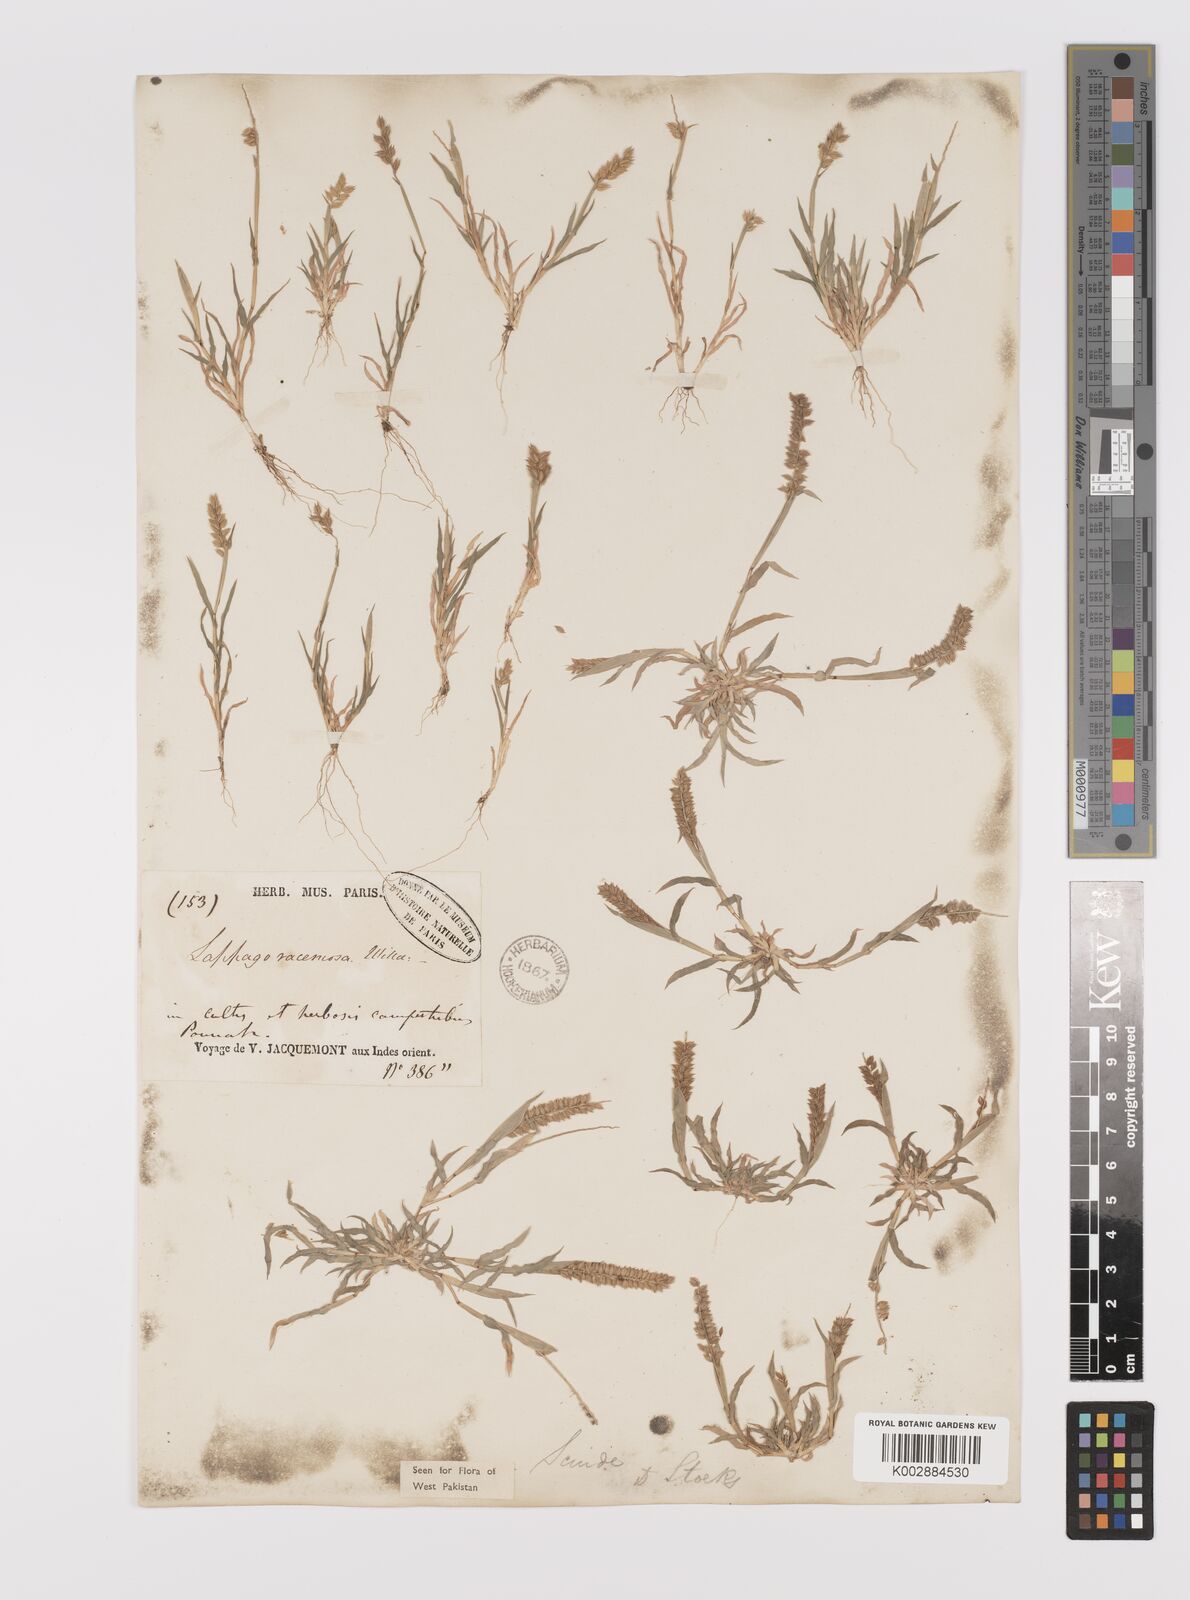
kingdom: Plantae
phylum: Tracheophyta
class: Liliopsida
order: Poales
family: Poaceae
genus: Tragus
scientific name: Tragus mongolorum
